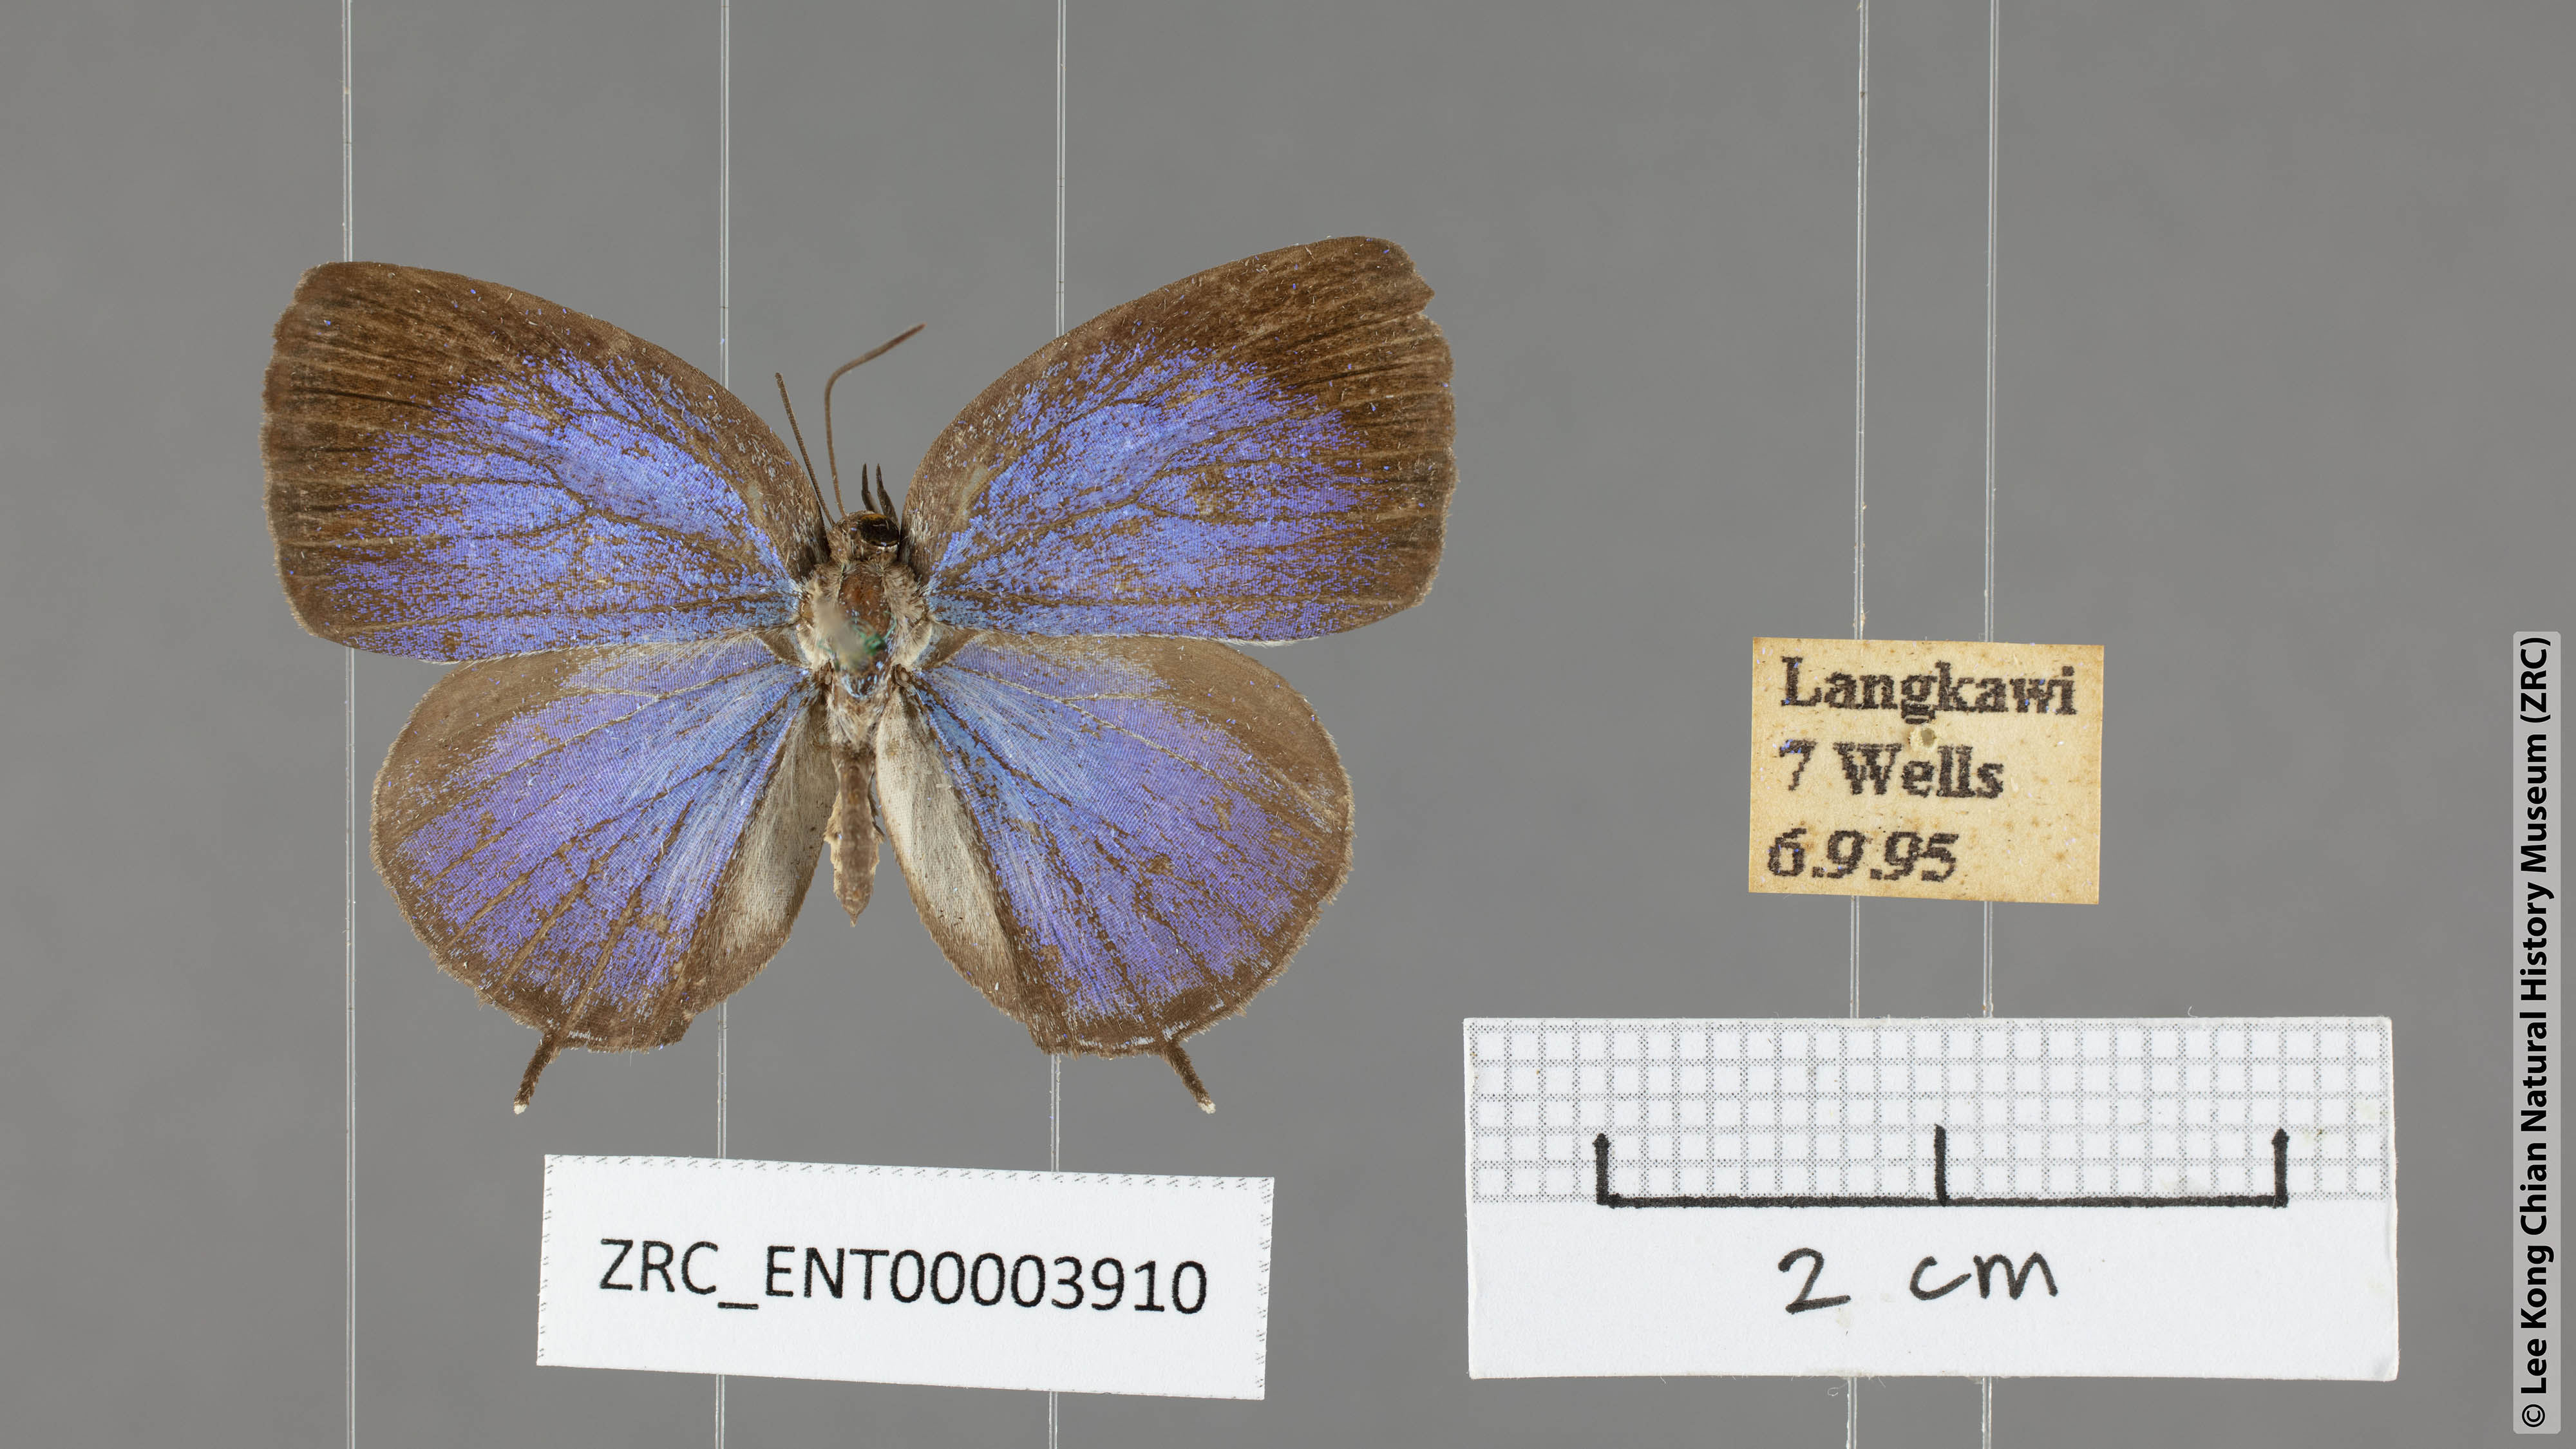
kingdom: Animalia
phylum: Arthropoda
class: Insecta
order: Lepidoptera
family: Lycaenidae
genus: Arhopala
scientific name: Arhopala democritus
